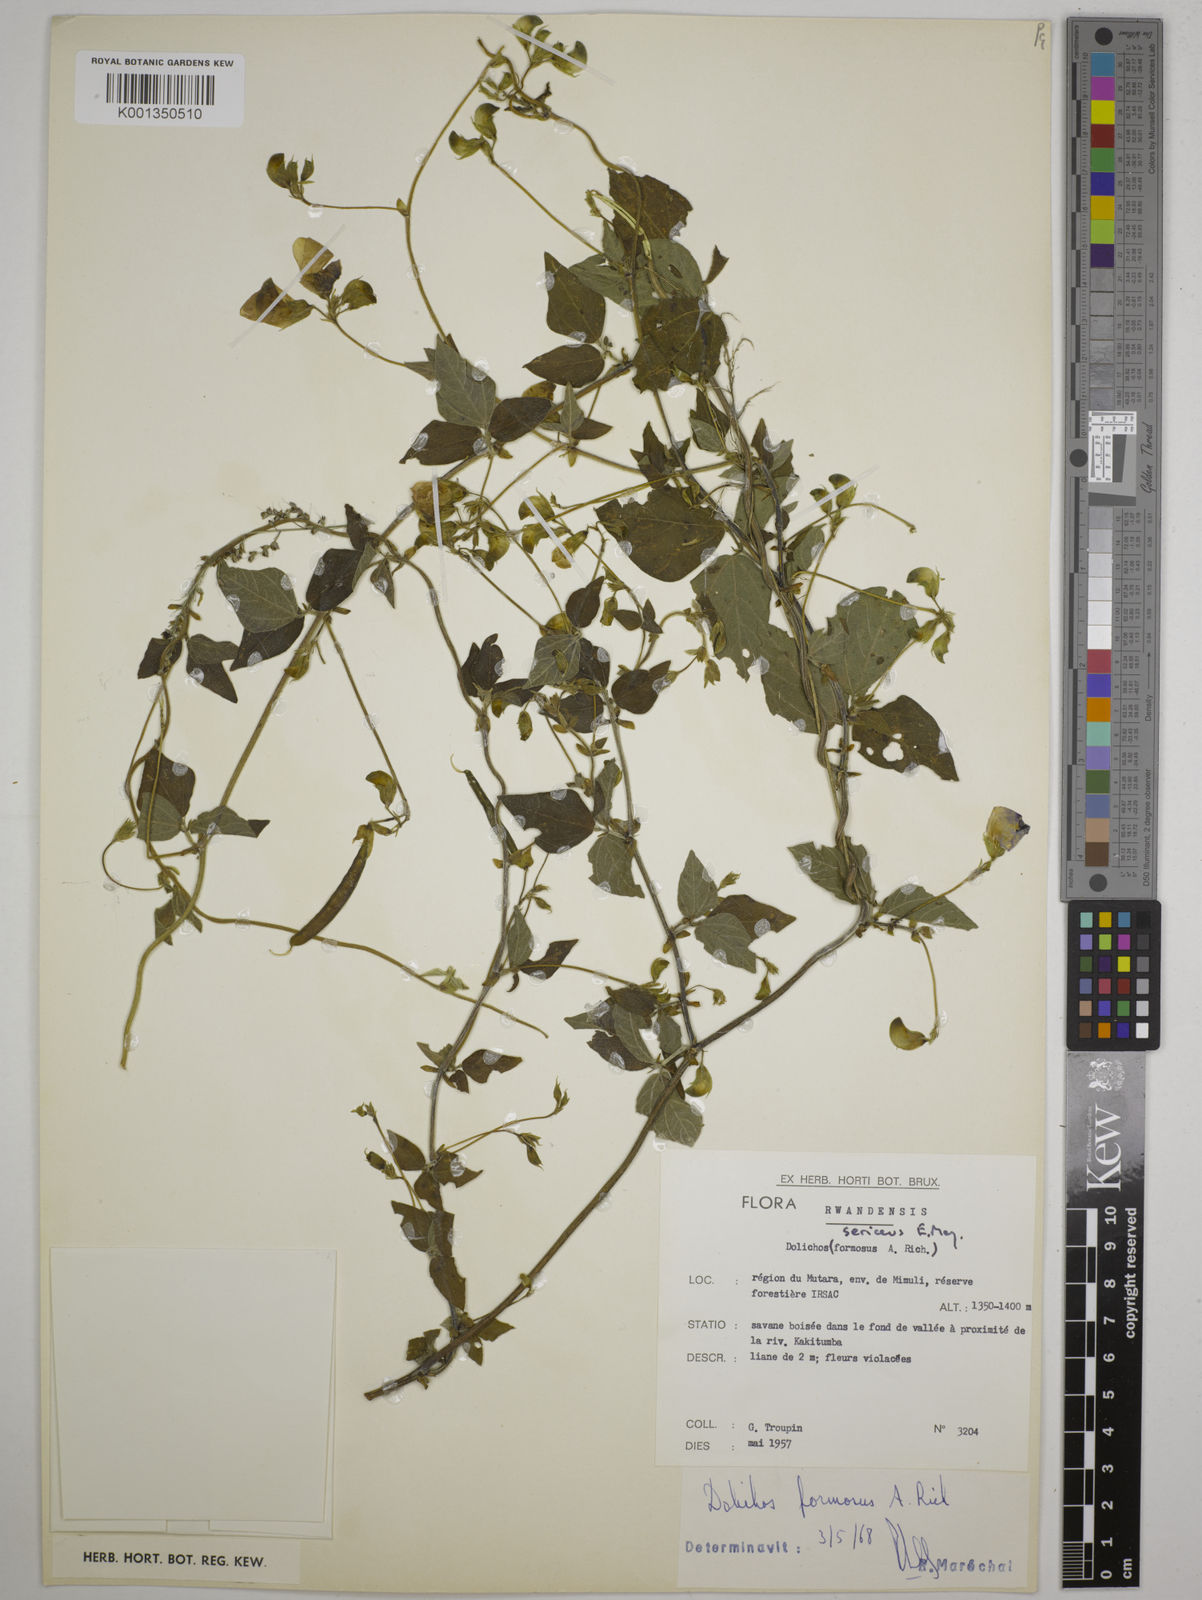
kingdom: Plantae
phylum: Tracheophyta
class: Magnoliopsida
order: Fabales
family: Fabaceae
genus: Dolichos
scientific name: Dolichos sericeus
